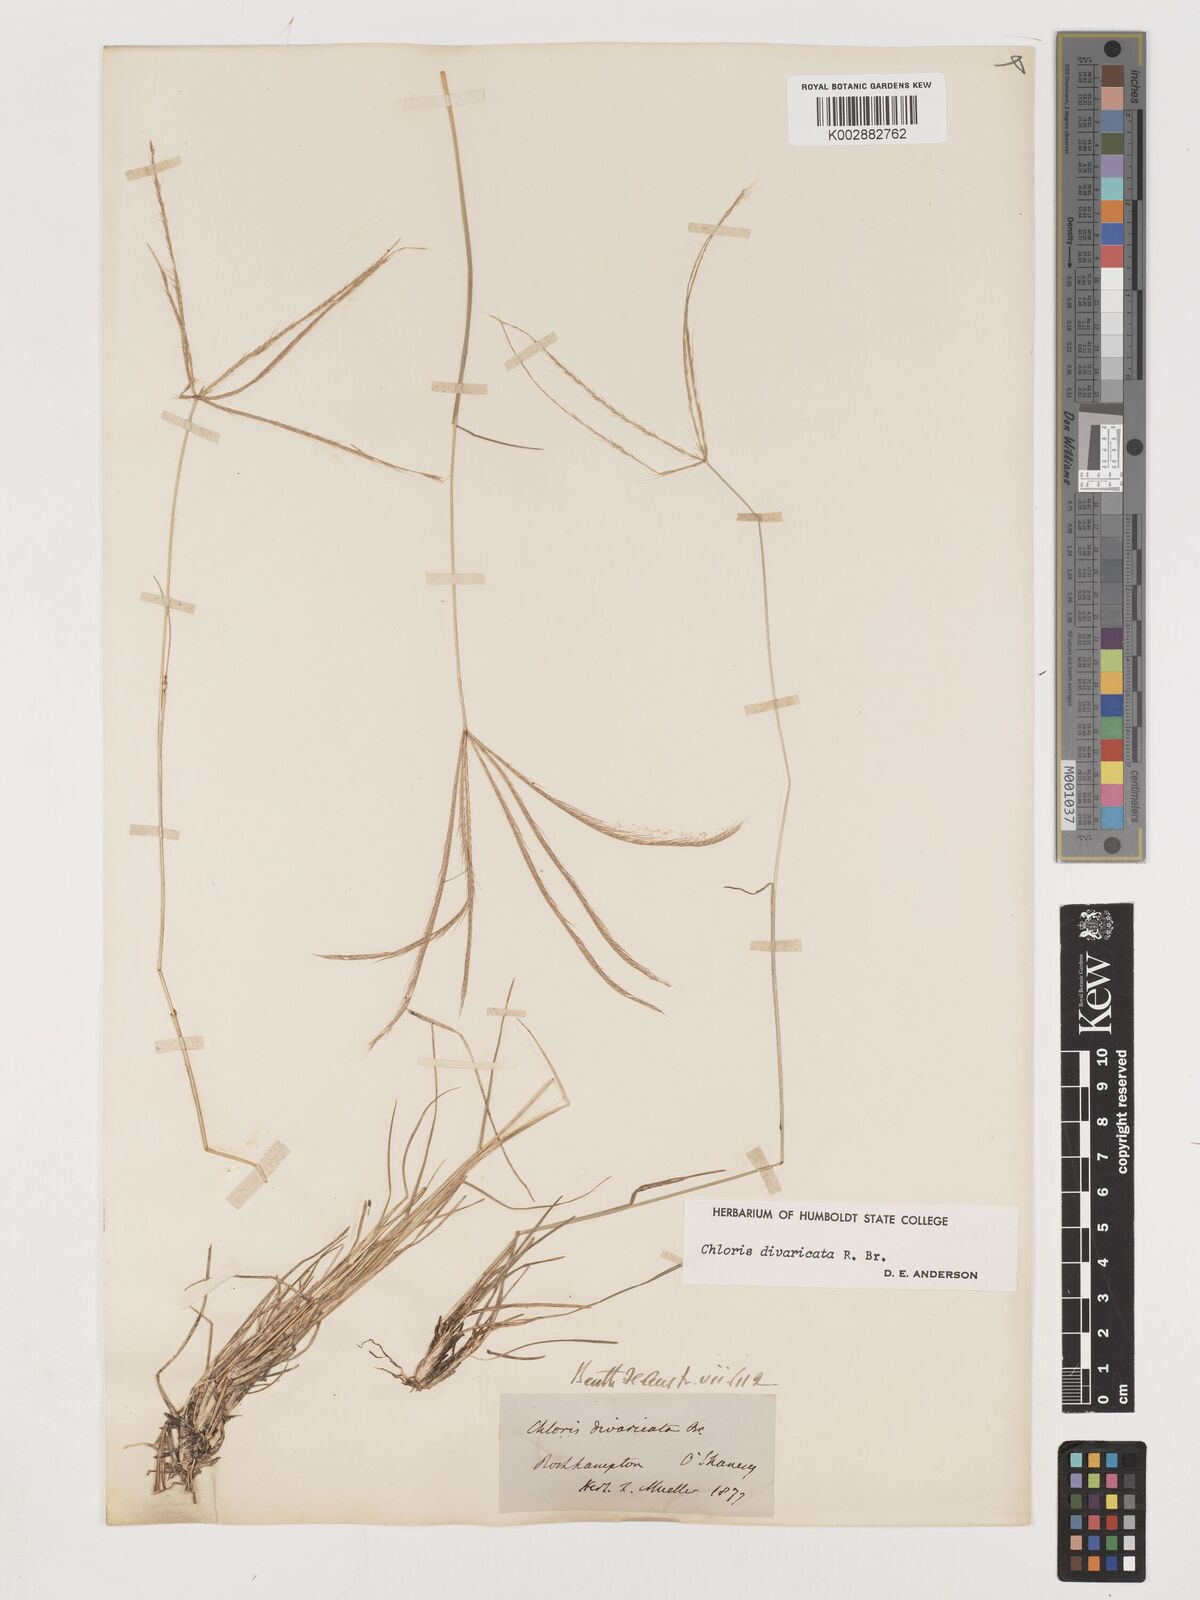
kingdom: Plantae
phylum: Tracheophyta
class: Liliopsida
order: Poales
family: Poaceae
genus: Chloris
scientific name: Chloris divaricata
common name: Spreading windmill grass
